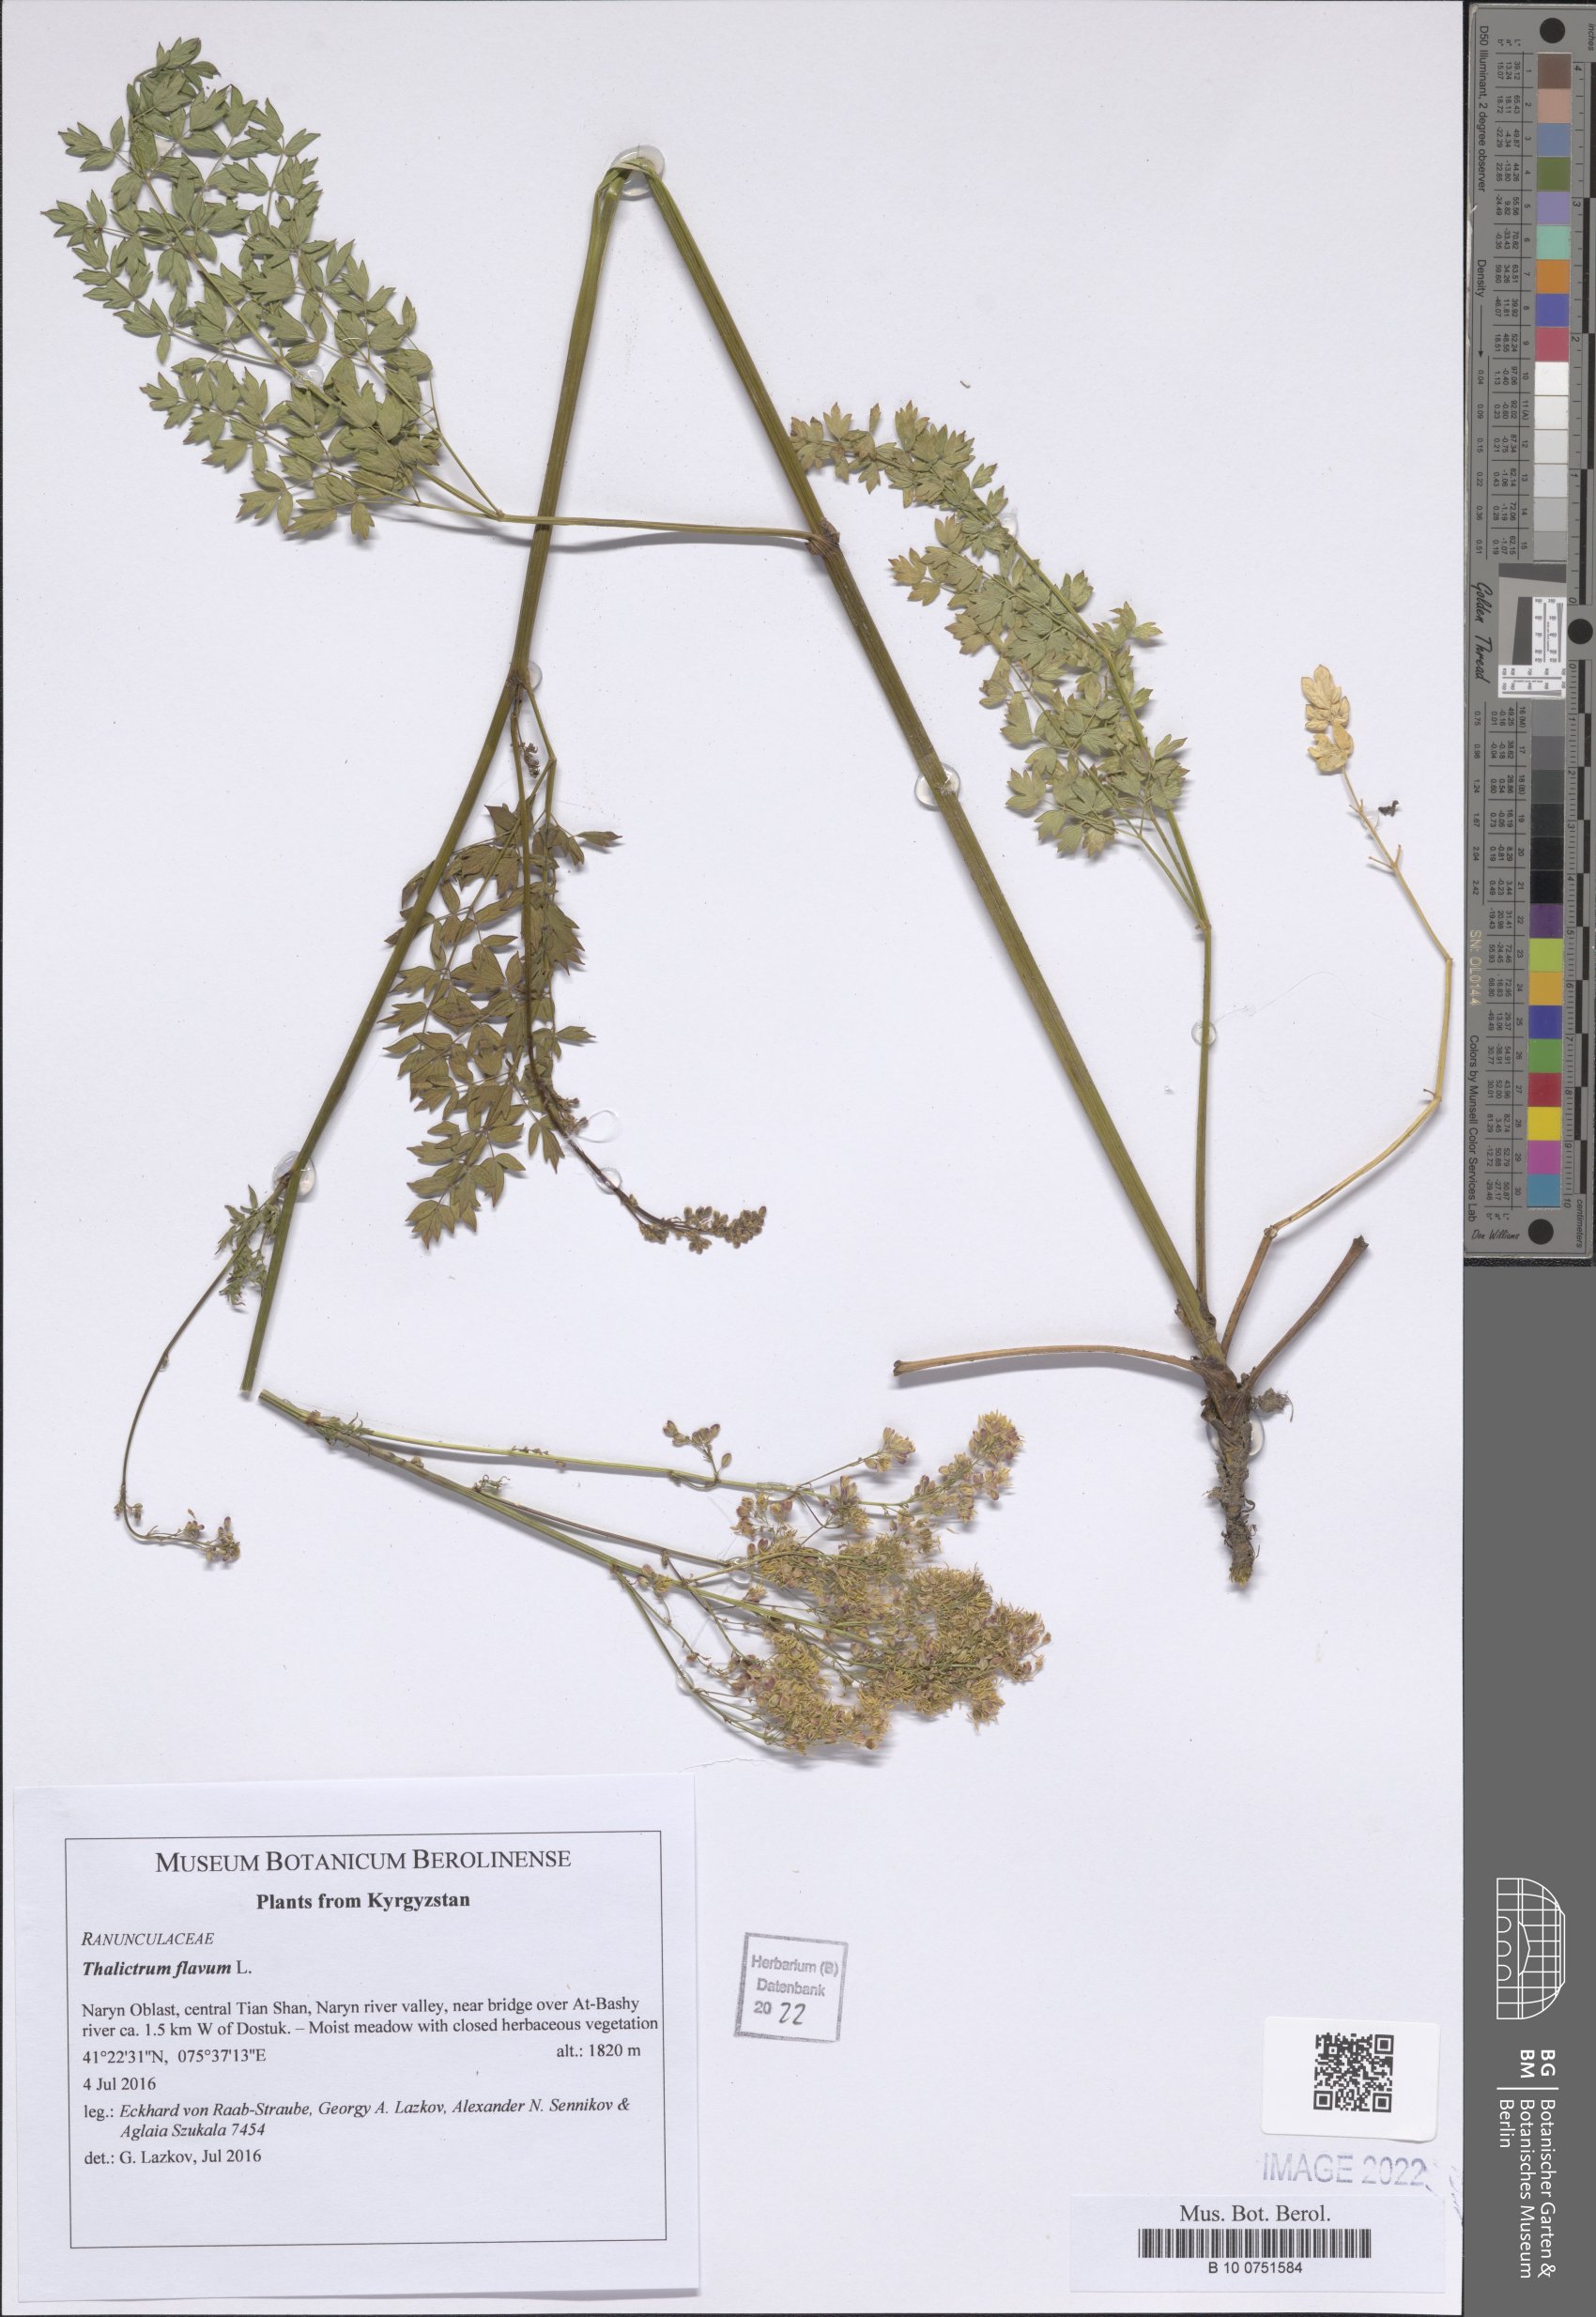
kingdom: Plantae
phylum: Tracheophyta
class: Magnoliopsida
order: Ranunculales
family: Ranunculaceae
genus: Thalictrum
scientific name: Thalictrum flavum
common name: Common meadow-rue
